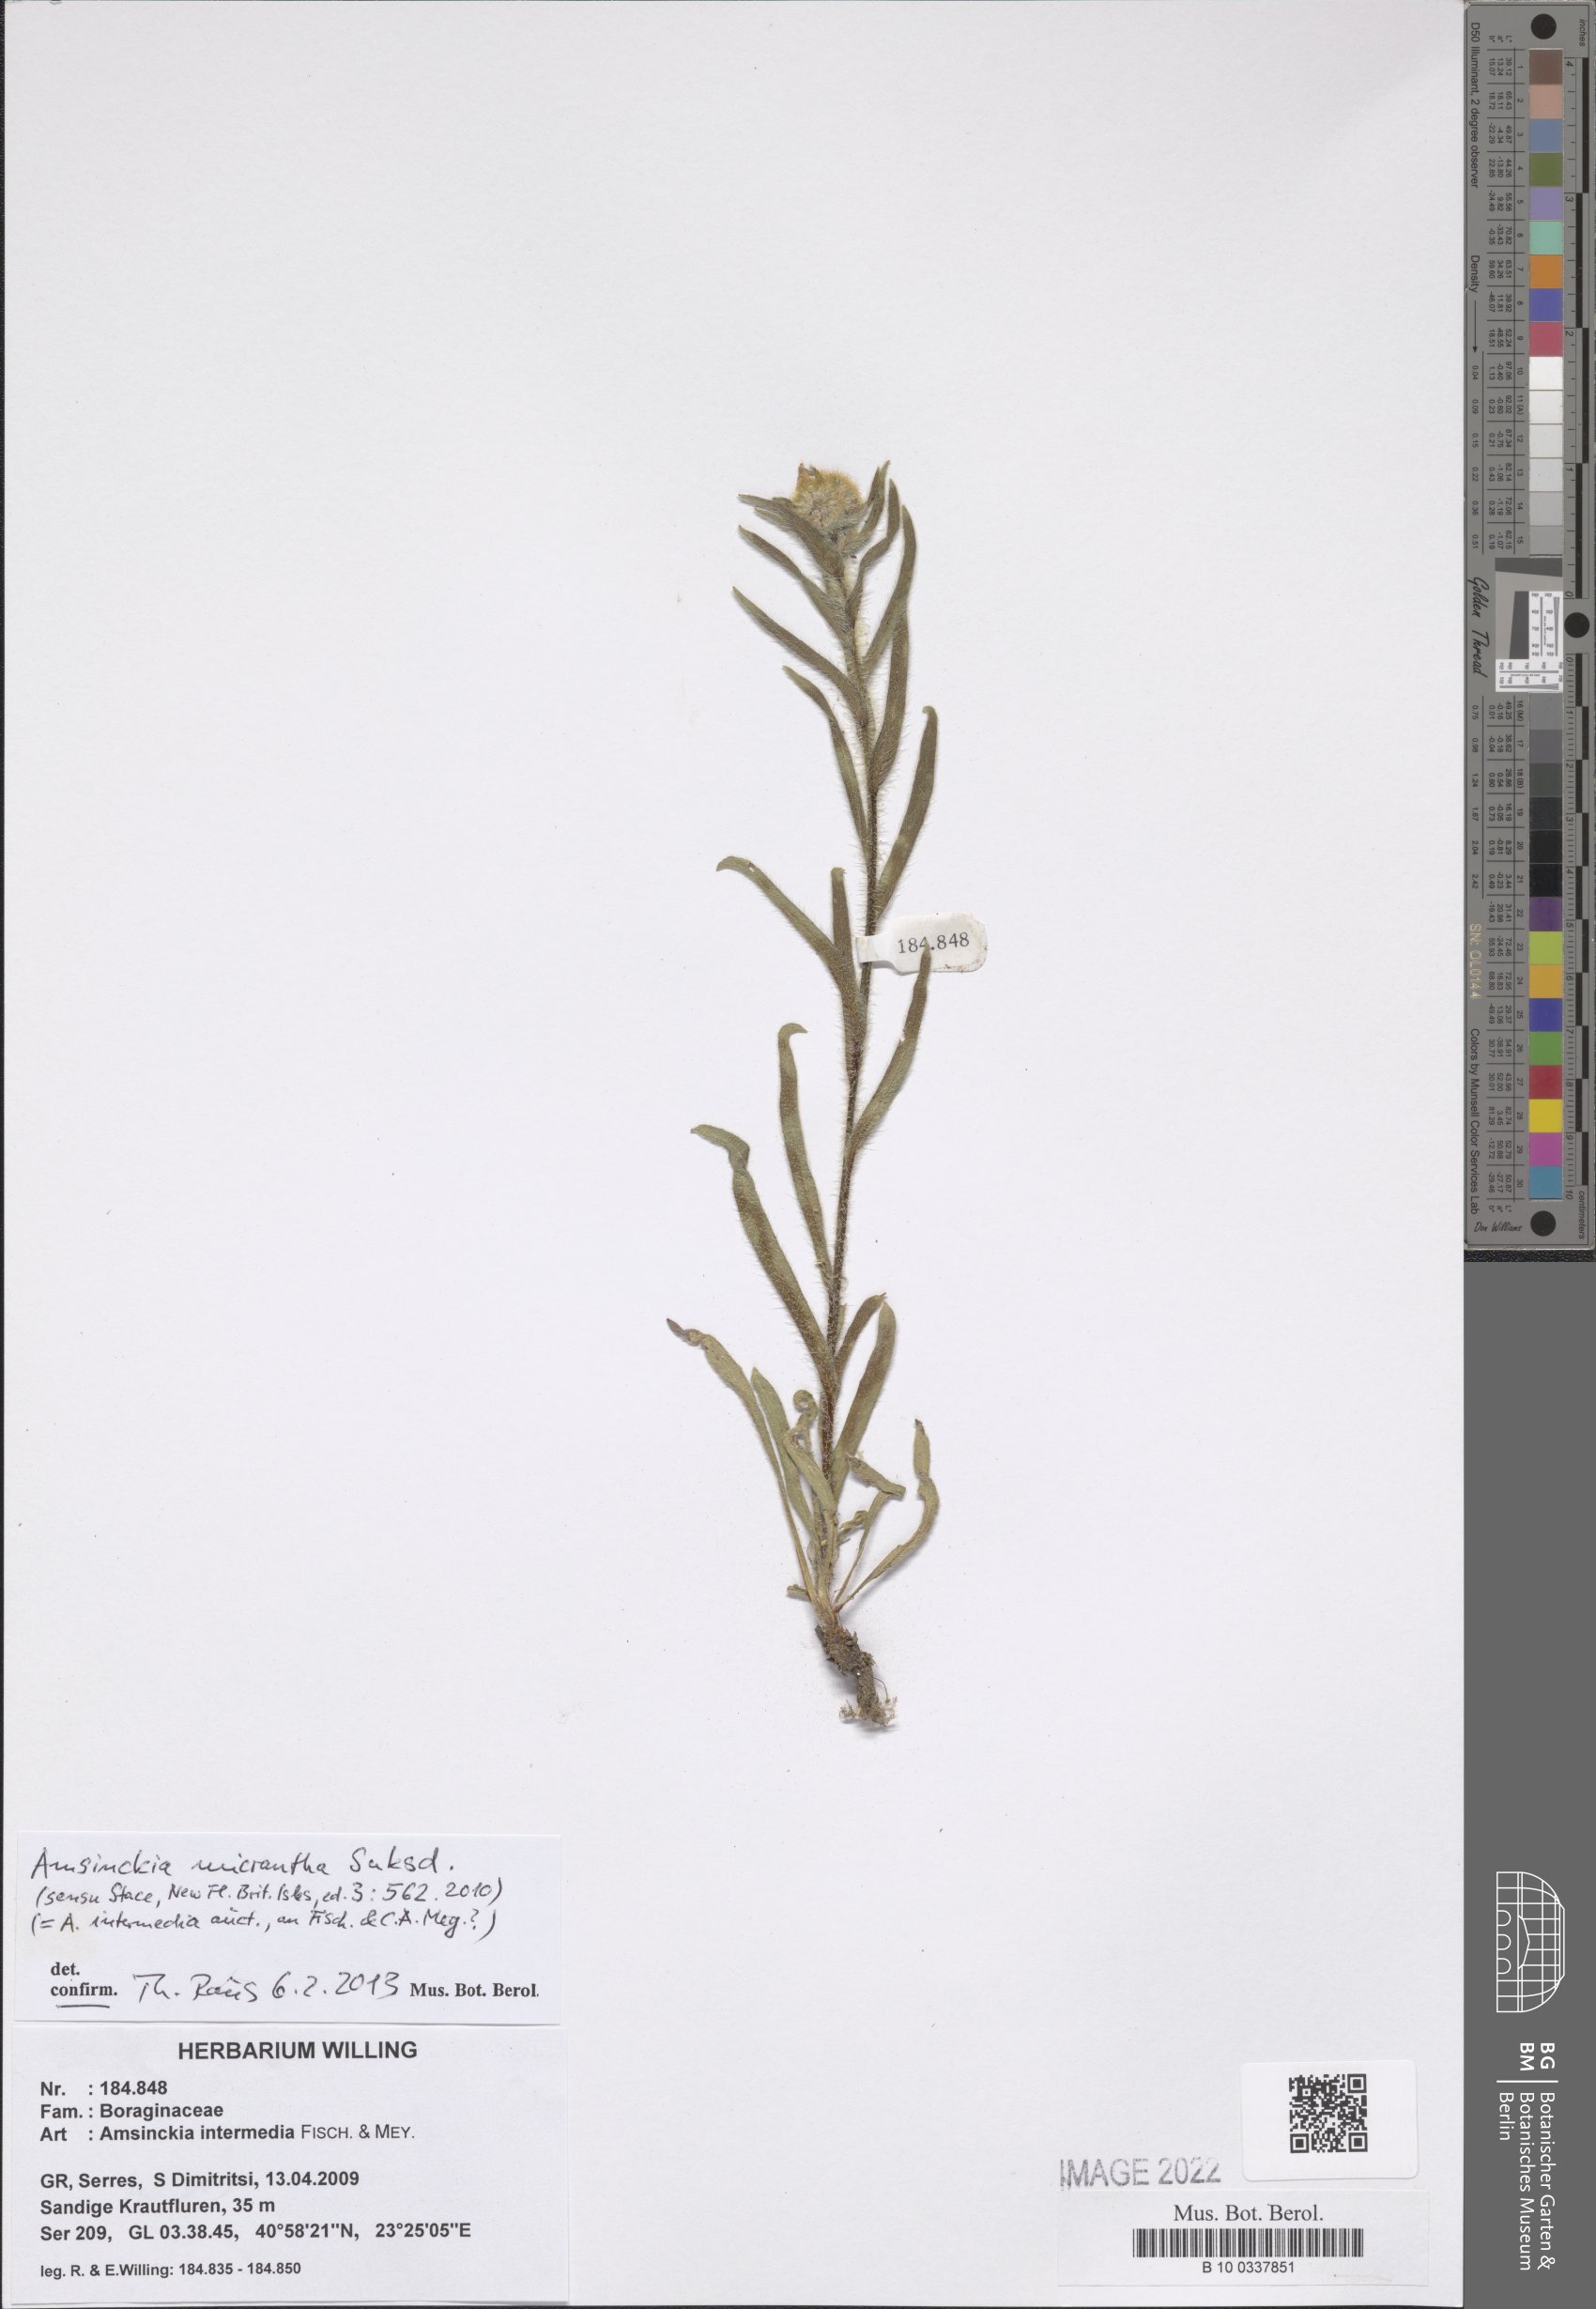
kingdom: Plantae
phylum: Tracheophyta
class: Magnoliopsida
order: Boraginales
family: Boraginaceae
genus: Amsinckia
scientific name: Amsinckia menziesii
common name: Menzies' fiddleneck
